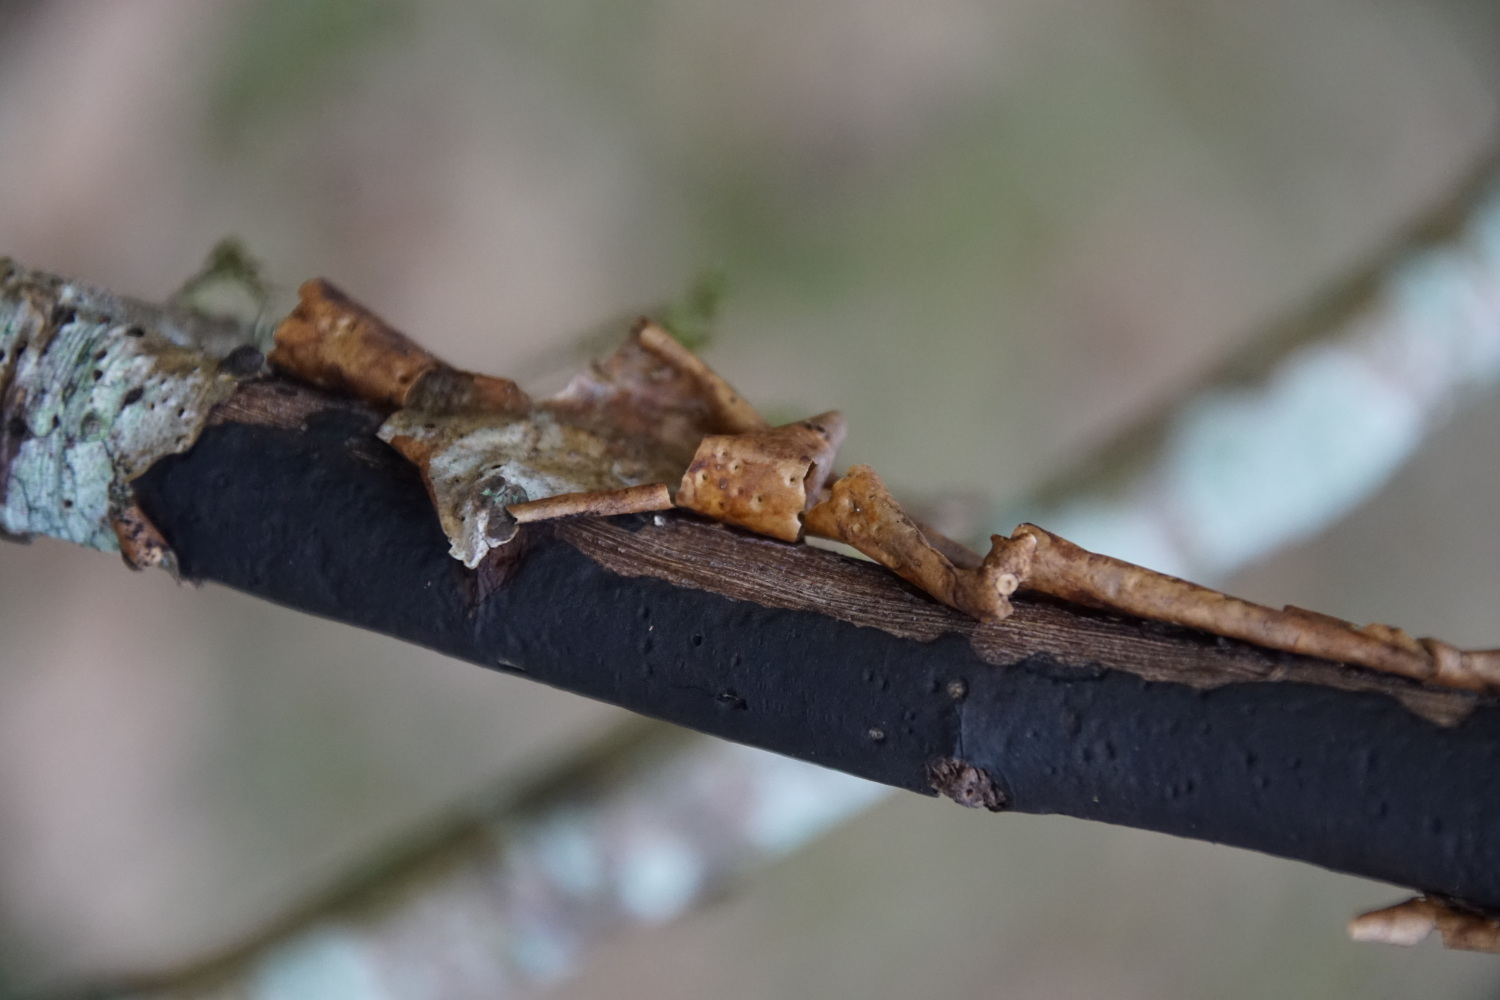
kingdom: Fungi
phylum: Ascomycota
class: Sordariomycetes
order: Xylariales
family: Diatrypaceae
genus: Diatrype
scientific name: Diatrype stigma
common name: udbredt kulskorpe
